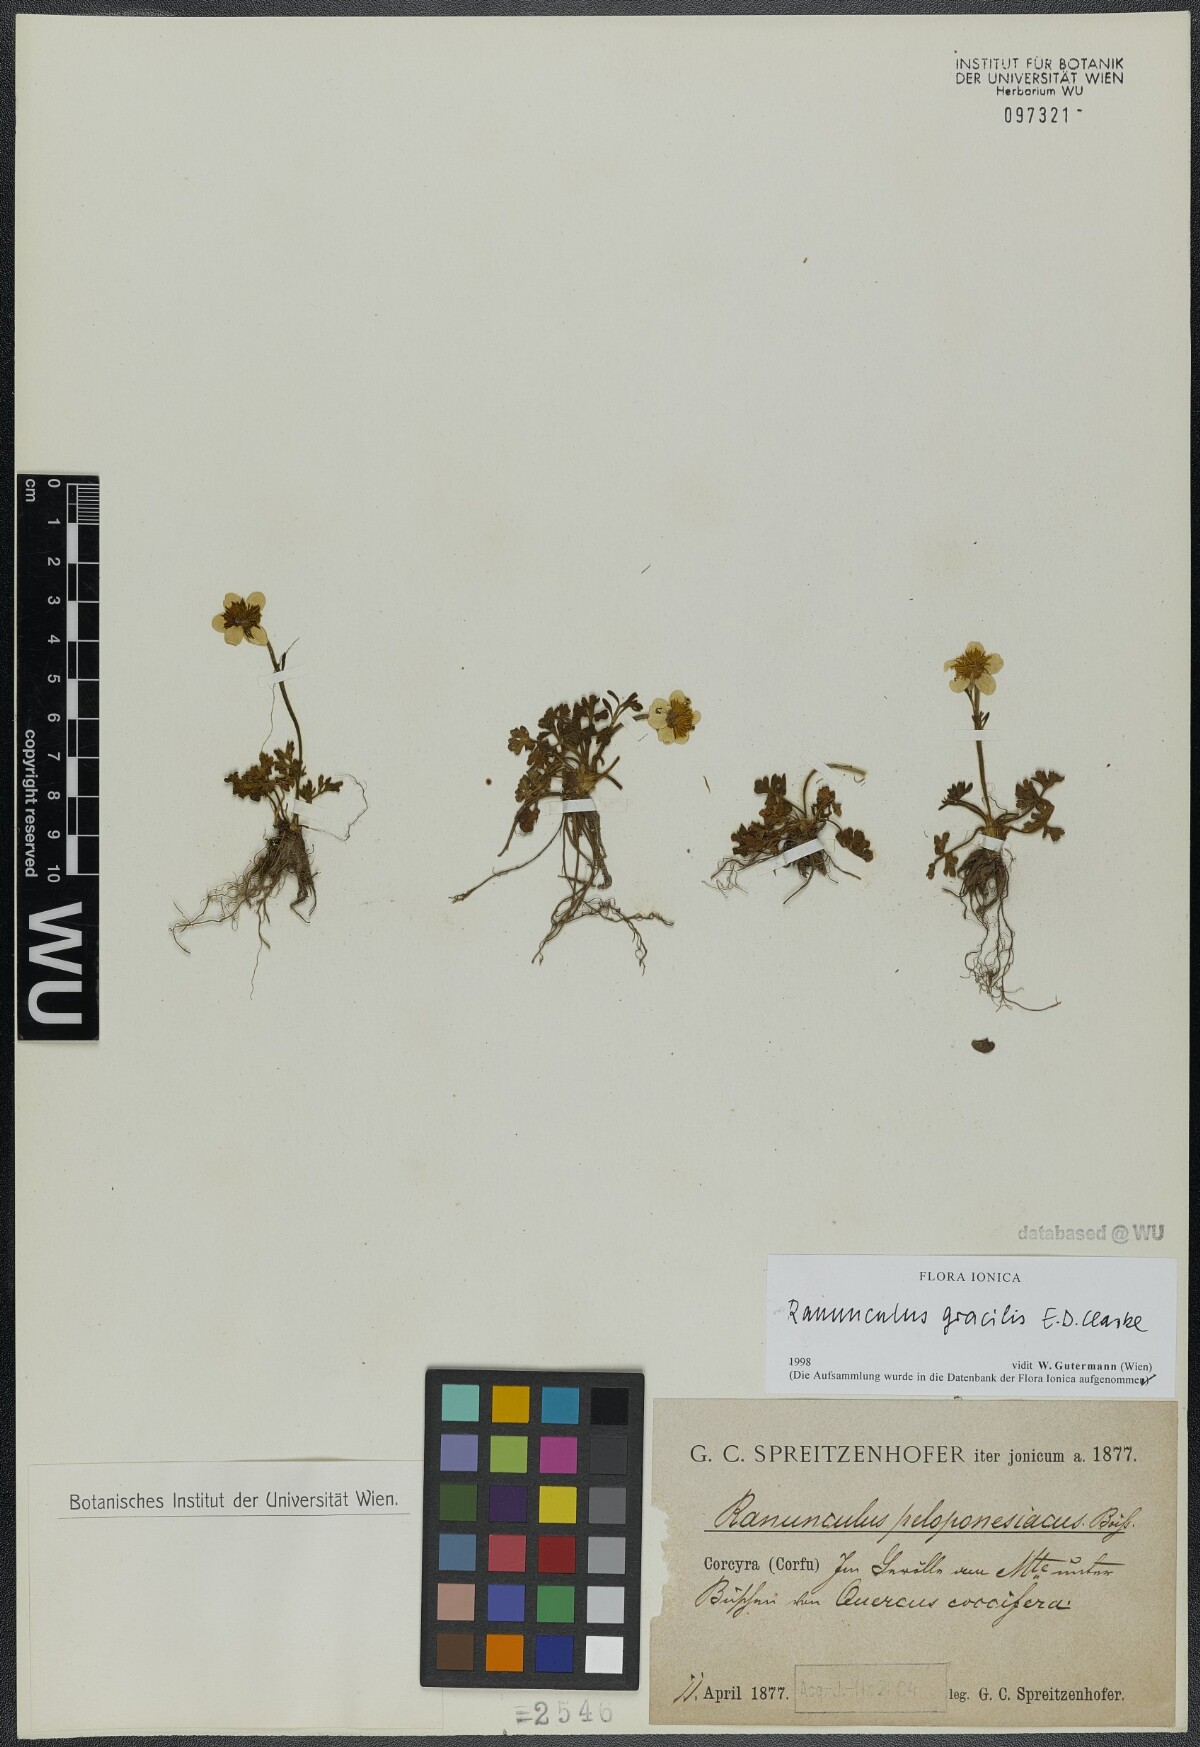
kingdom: Plantae
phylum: Tracheophyta
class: Magnoliopsida
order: Ranunculales
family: Ranunculaceae
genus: Ranunculus
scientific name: Ranunculus gracilis
